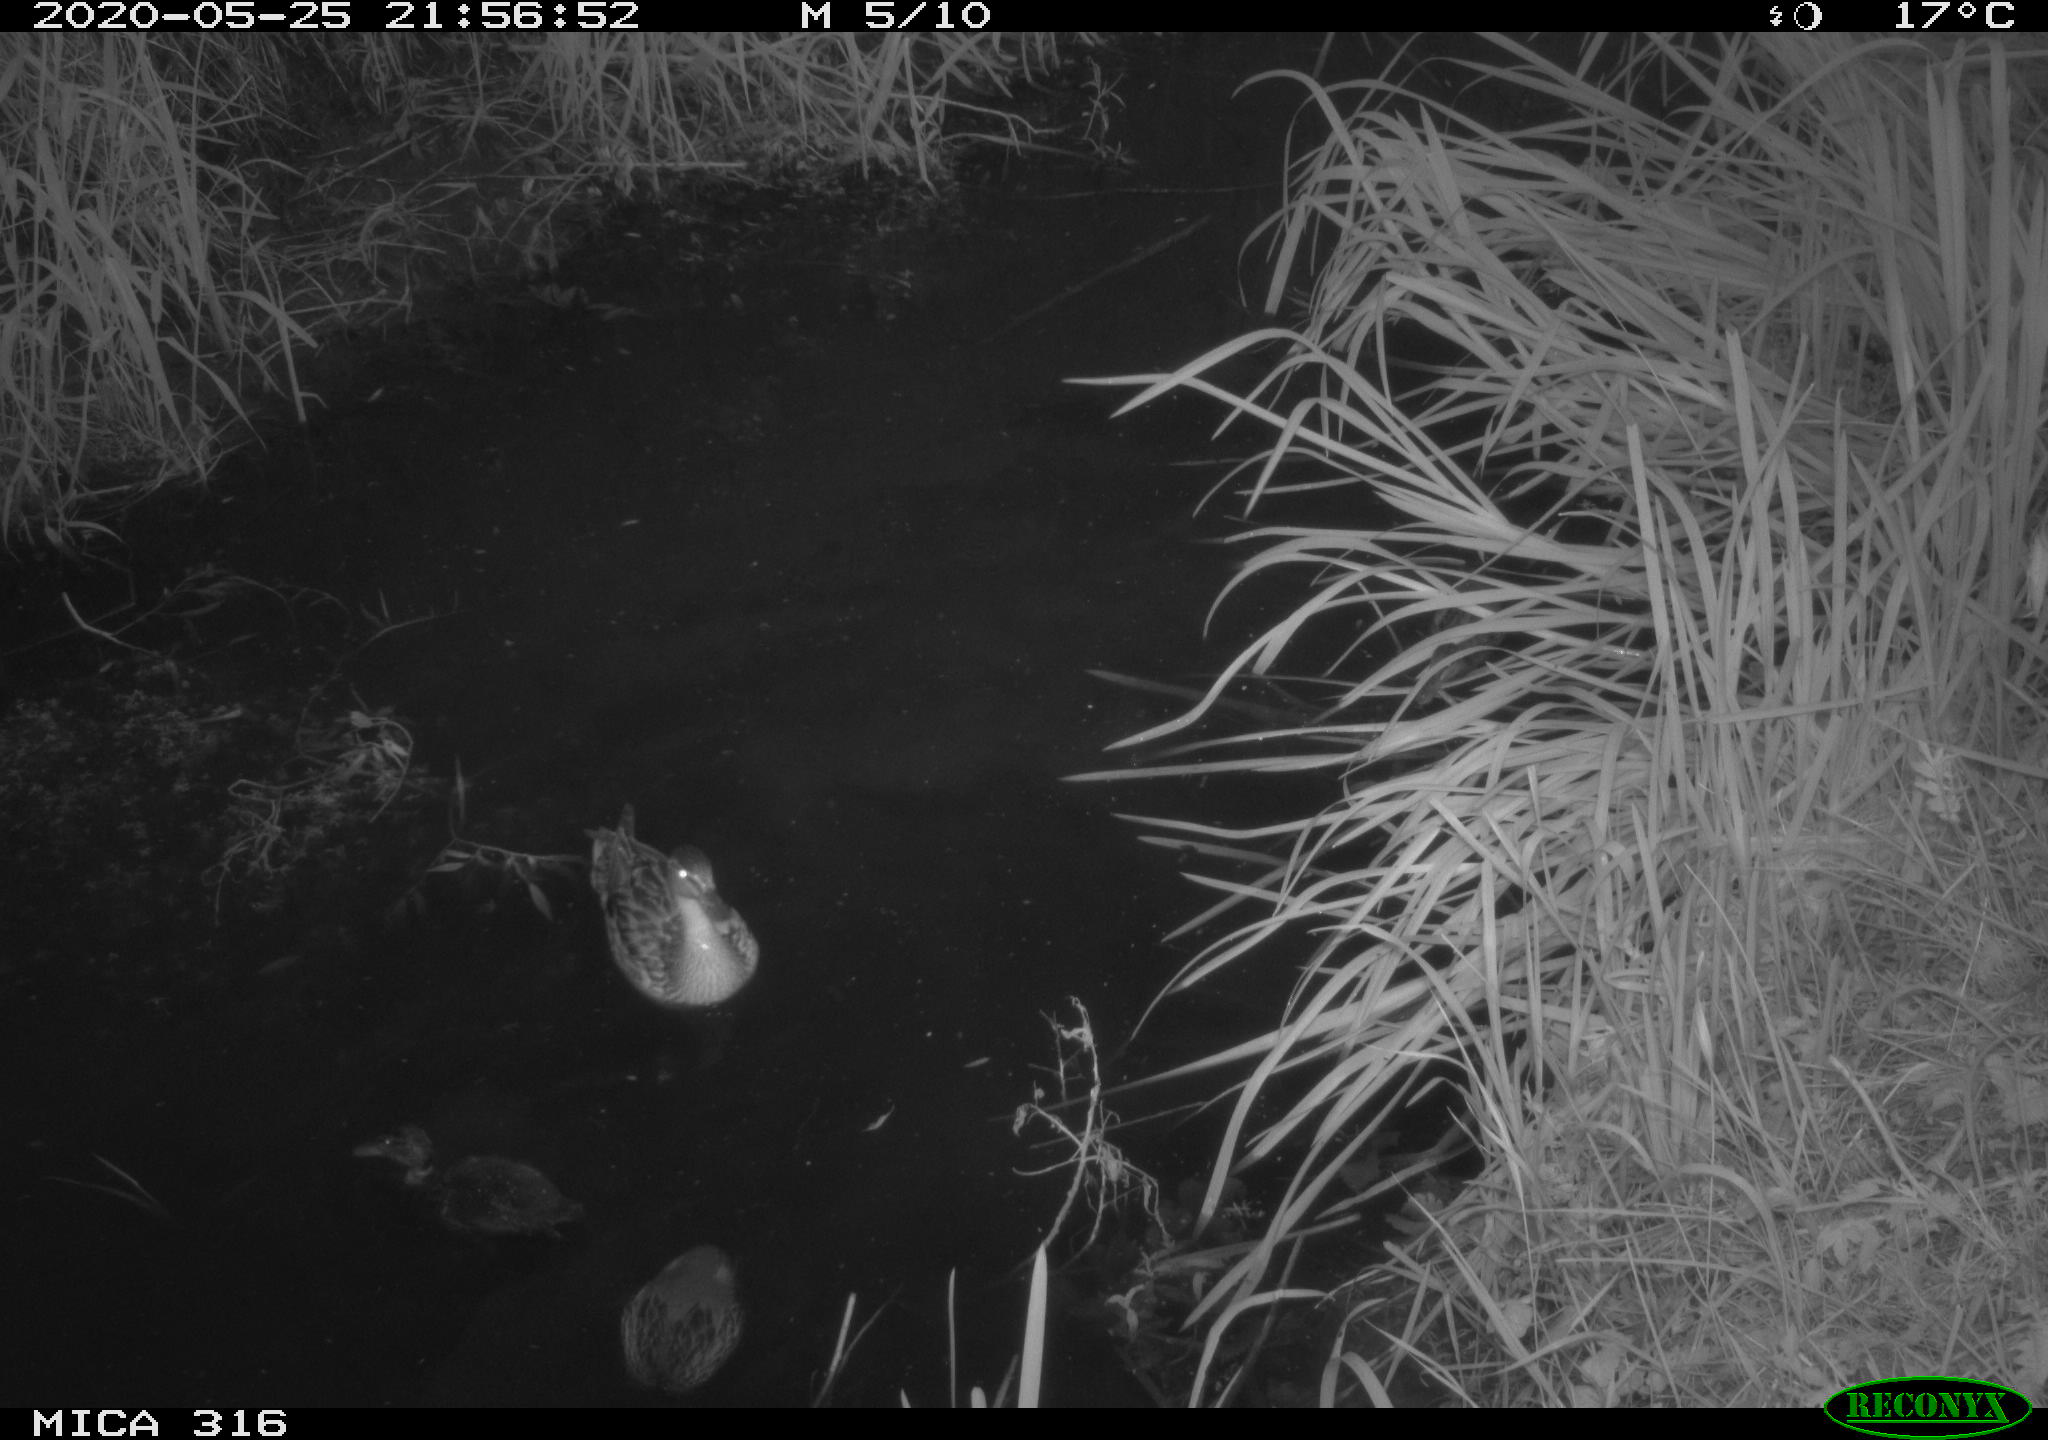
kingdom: Animalia
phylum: Chordata
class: Aves
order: Anseriformes
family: Anatidae
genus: Anas
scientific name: Anas platyrhynchos
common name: Mallard
